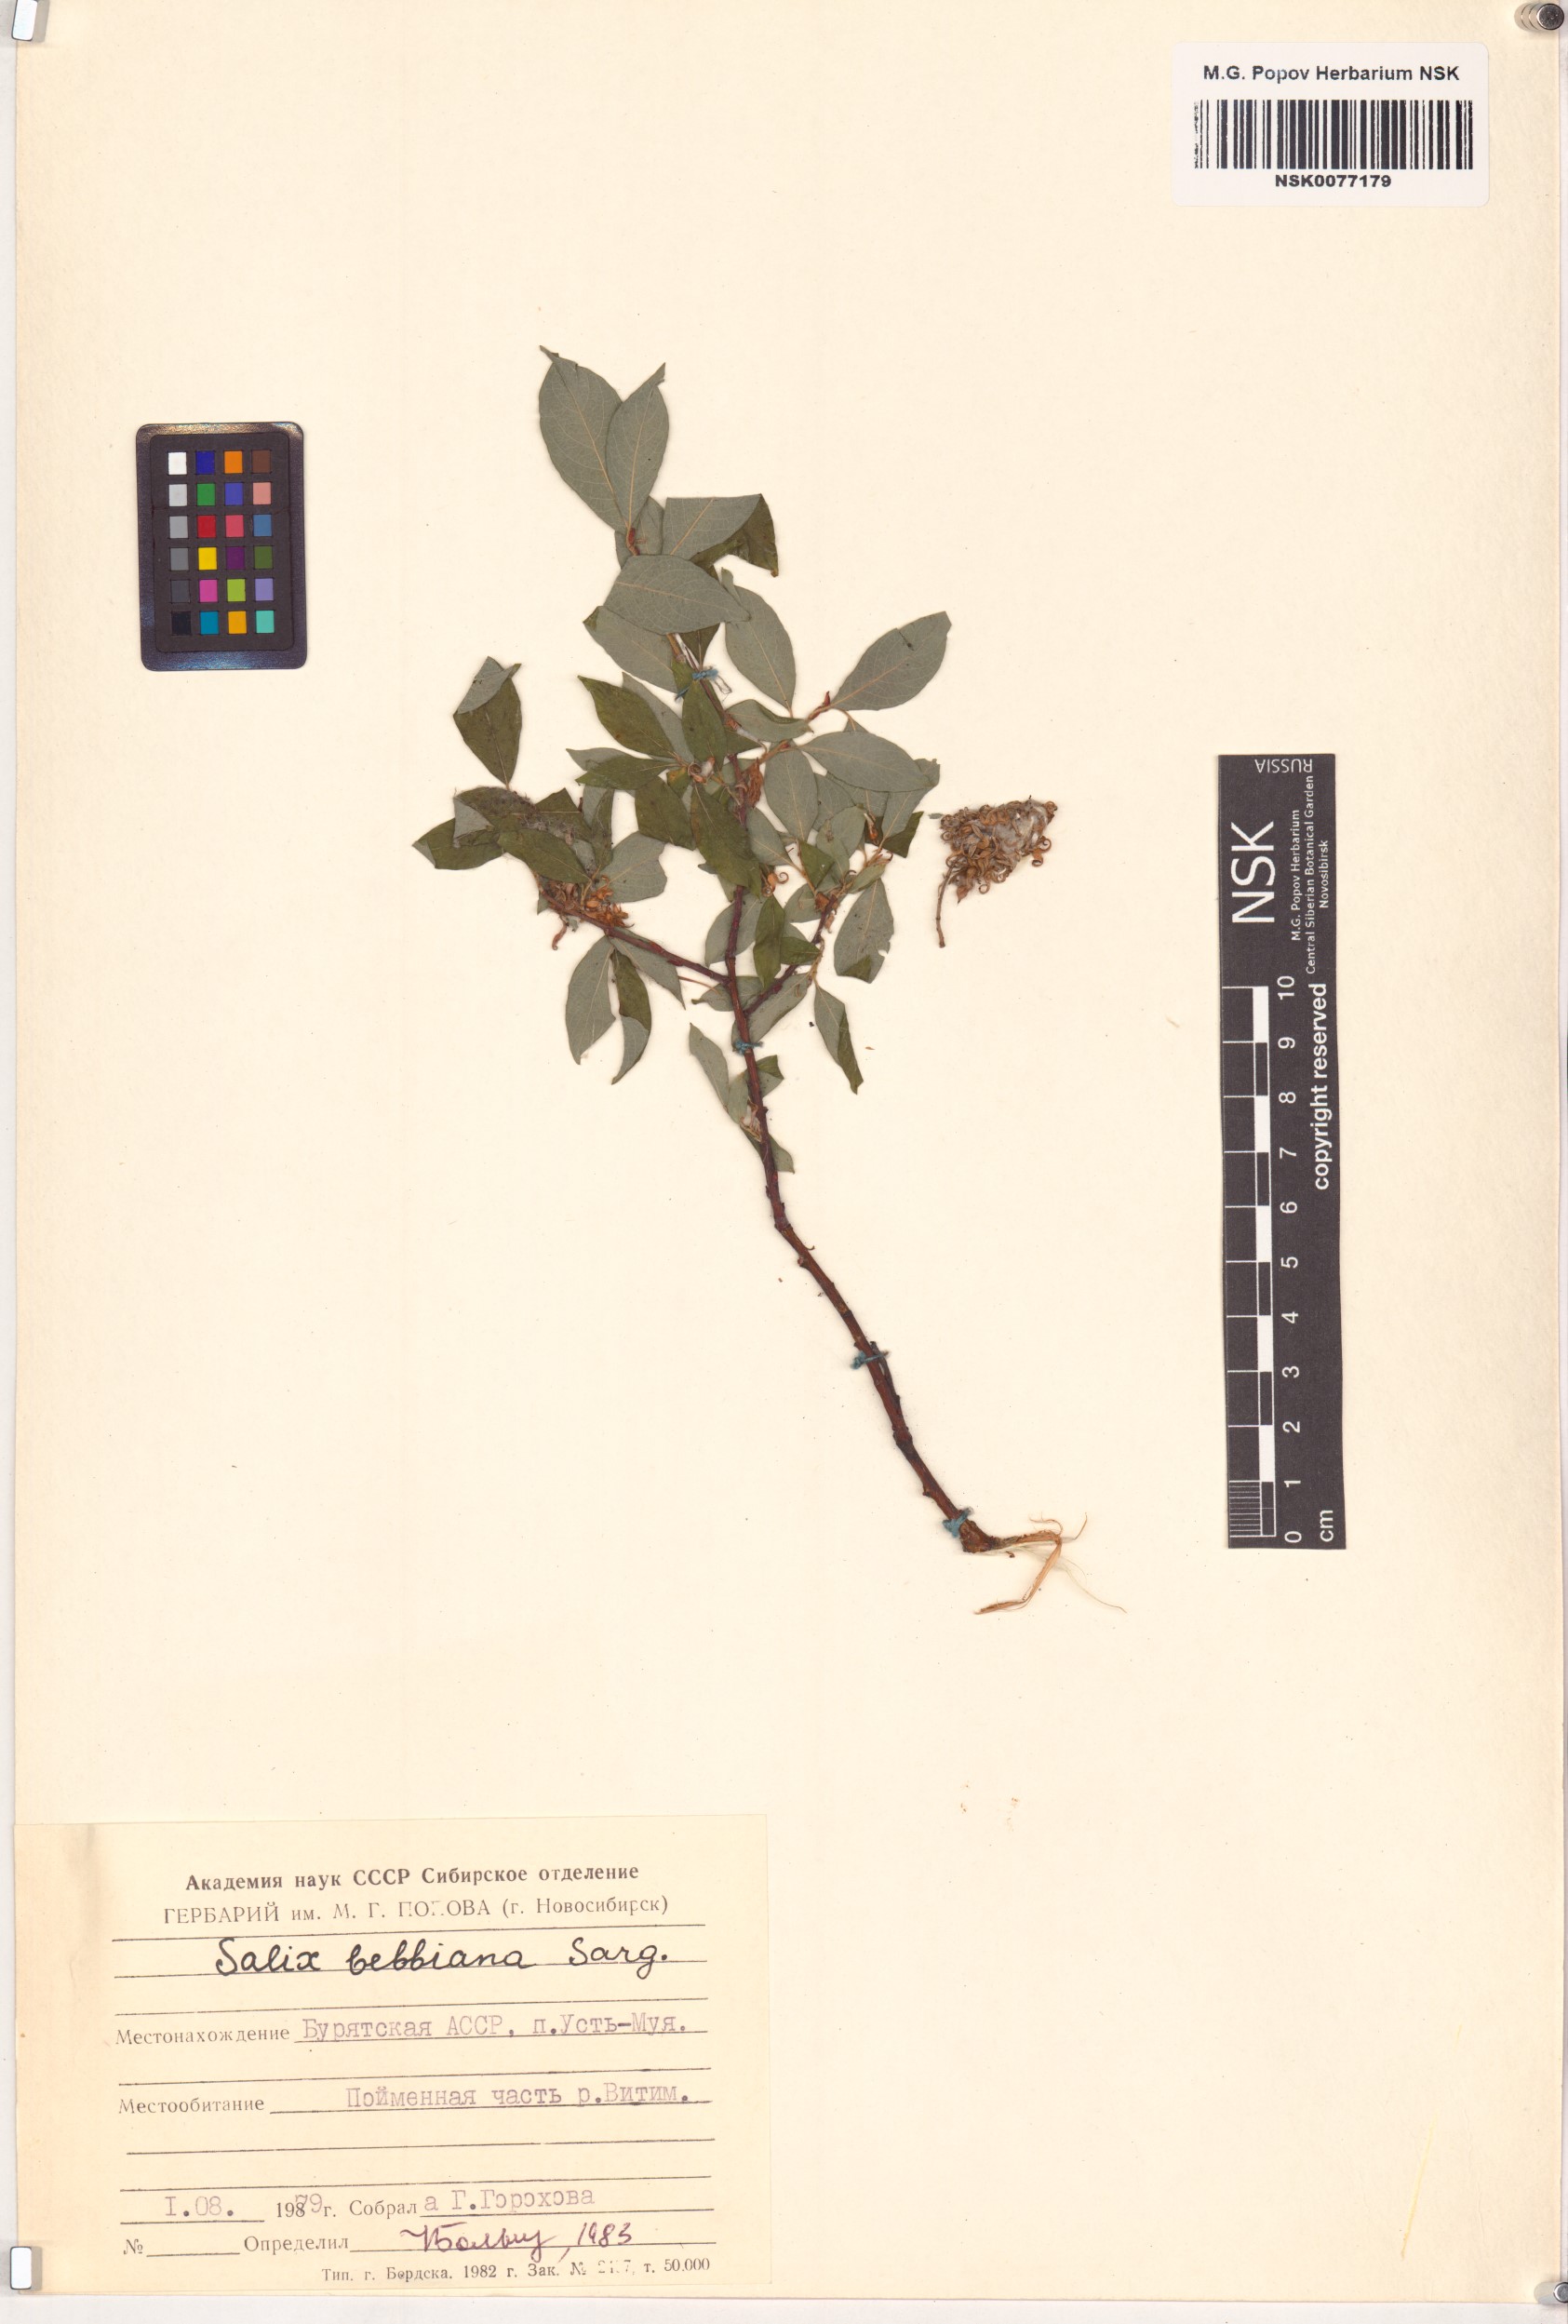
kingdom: Plantae
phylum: Tracheophyta
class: Magnoliopsida
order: Malpighiales
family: Salicaceae
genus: Salix
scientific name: Salix bebbiana
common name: Bebb's willow
